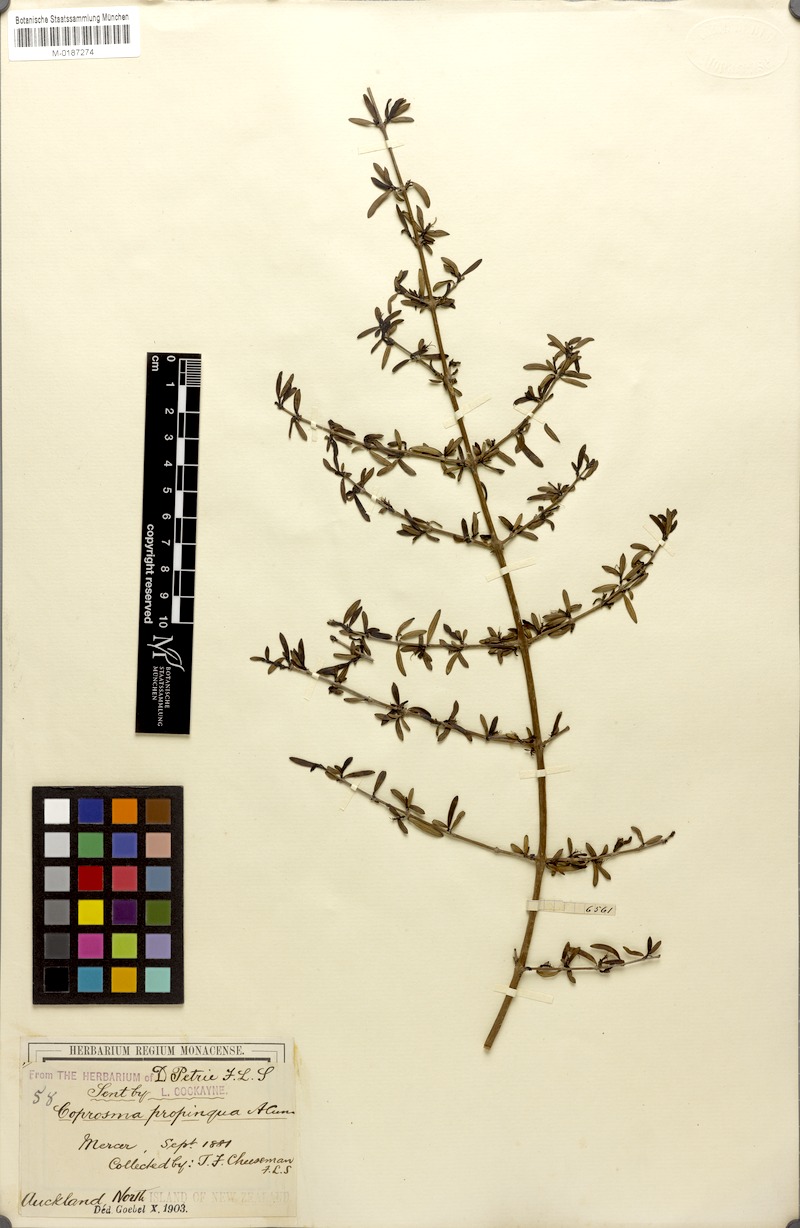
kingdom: Plantae
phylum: Tracheophyta
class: Magnoliopsida
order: Gentianales
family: Rubiaceae
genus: Coprosma
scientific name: Coprosma propinqua
